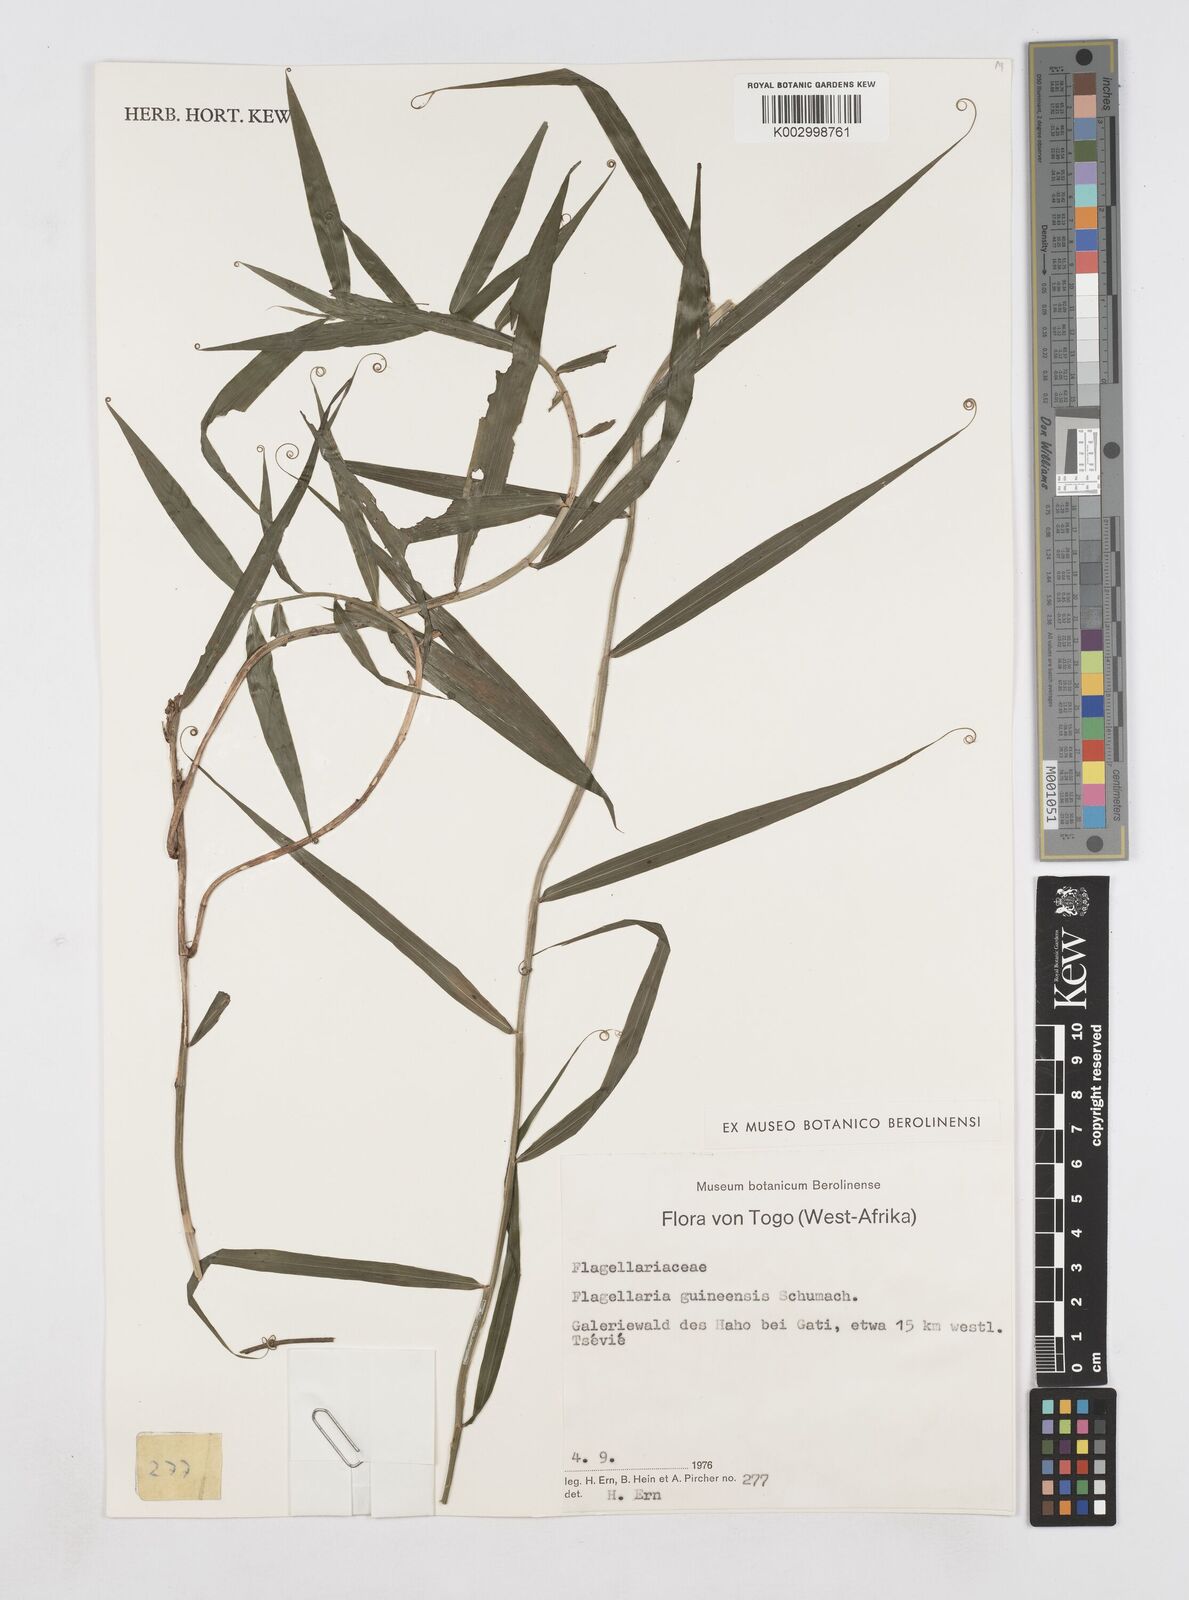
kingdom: Plantae
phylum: Tracheophyta
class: Liliopsida
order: Poales
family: Flagellariaceae
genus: Flagellaria
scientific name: Flagellaria guineensis
